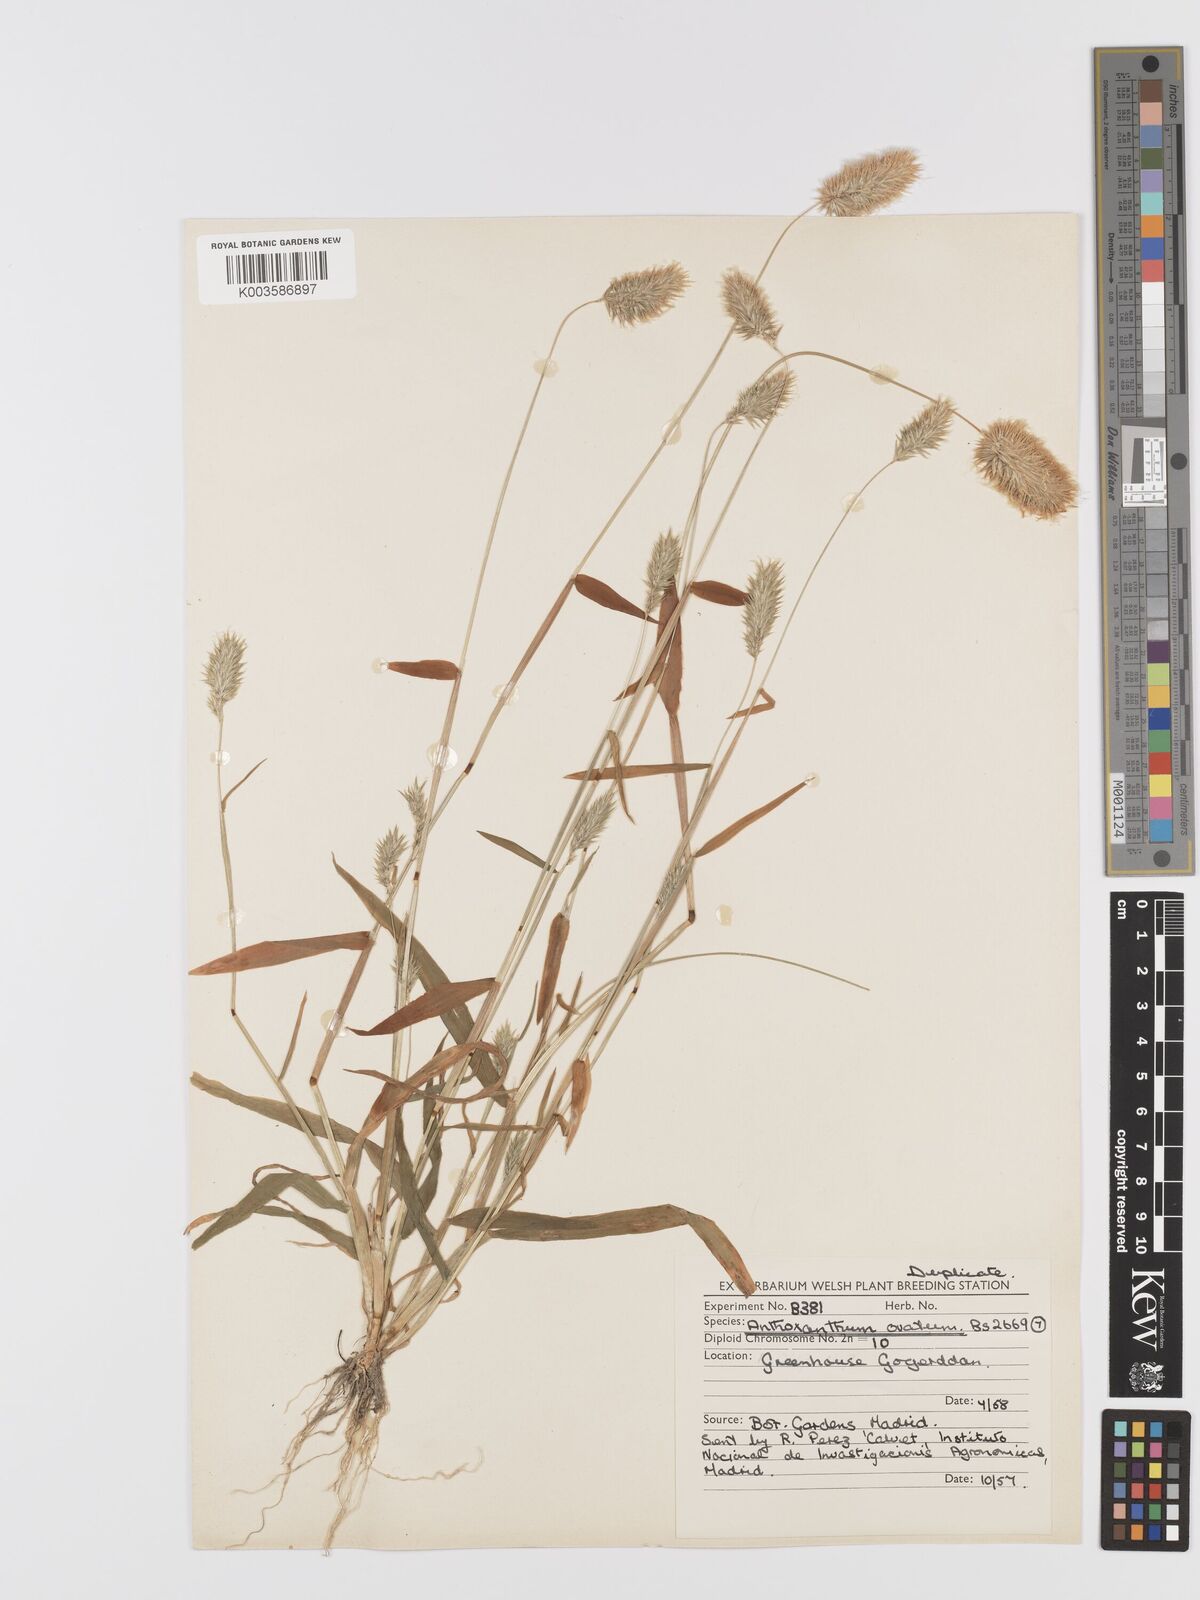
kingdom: Plantae
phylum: Tracheophyta
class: Liliopsida
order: Poales
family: Poaceae
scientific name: Poaceae
